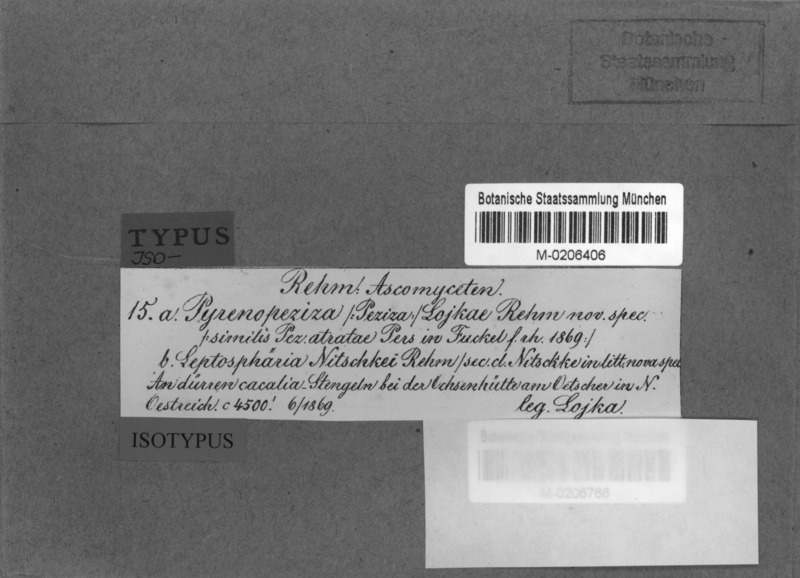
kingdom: Plantae
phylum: Tracheophyta
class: Magnoliopsida
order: Asterales
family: Asteraceae
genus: Cacalia
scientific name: Cacalia
